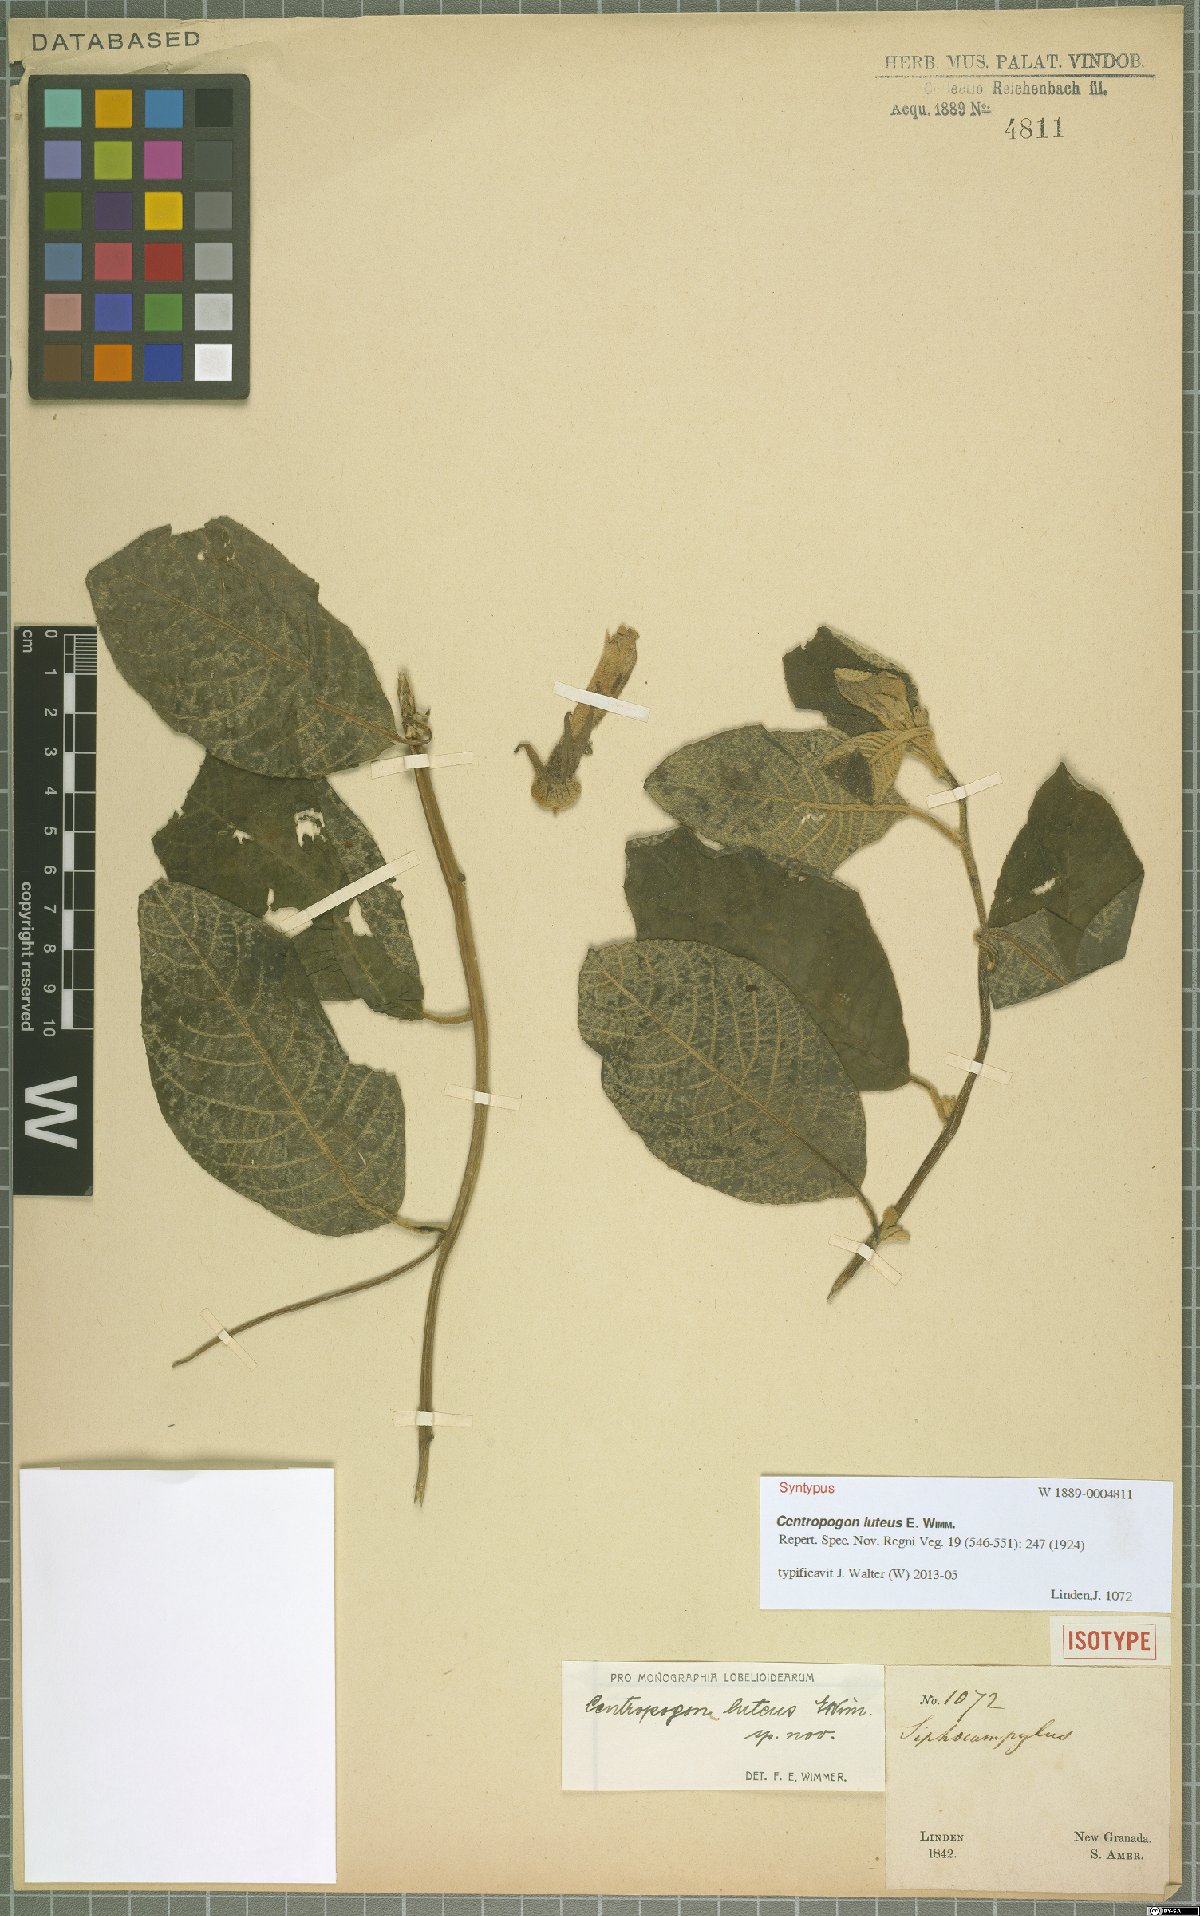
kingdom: Plantae
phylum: Tracheophyta
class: Magnoliopsida
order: Asterales
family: Campanulaceae
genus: Centropogon
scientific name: Centropogon luteus
